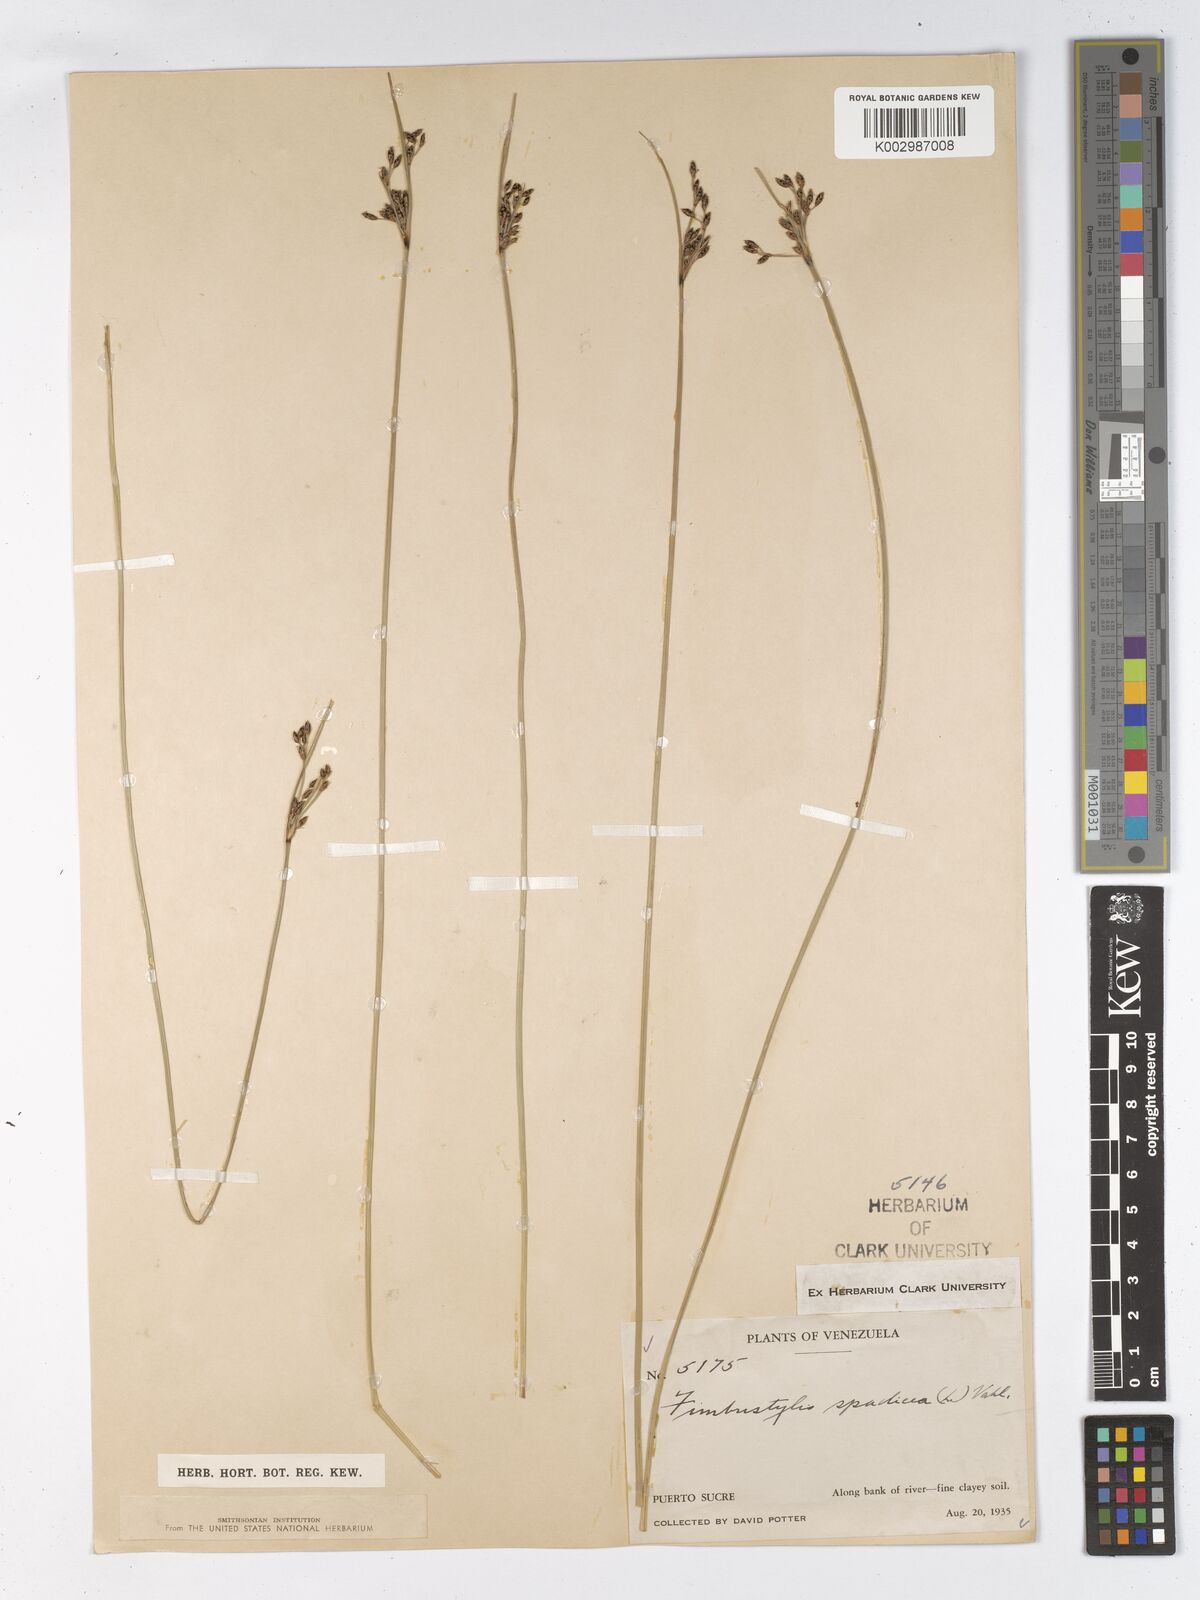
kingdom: Plantae
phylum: Tracheophyta
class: Liliopsida
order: Poales
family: Cyperaceae
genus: Fimbristylis
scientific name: Fimbristylis spadicea
